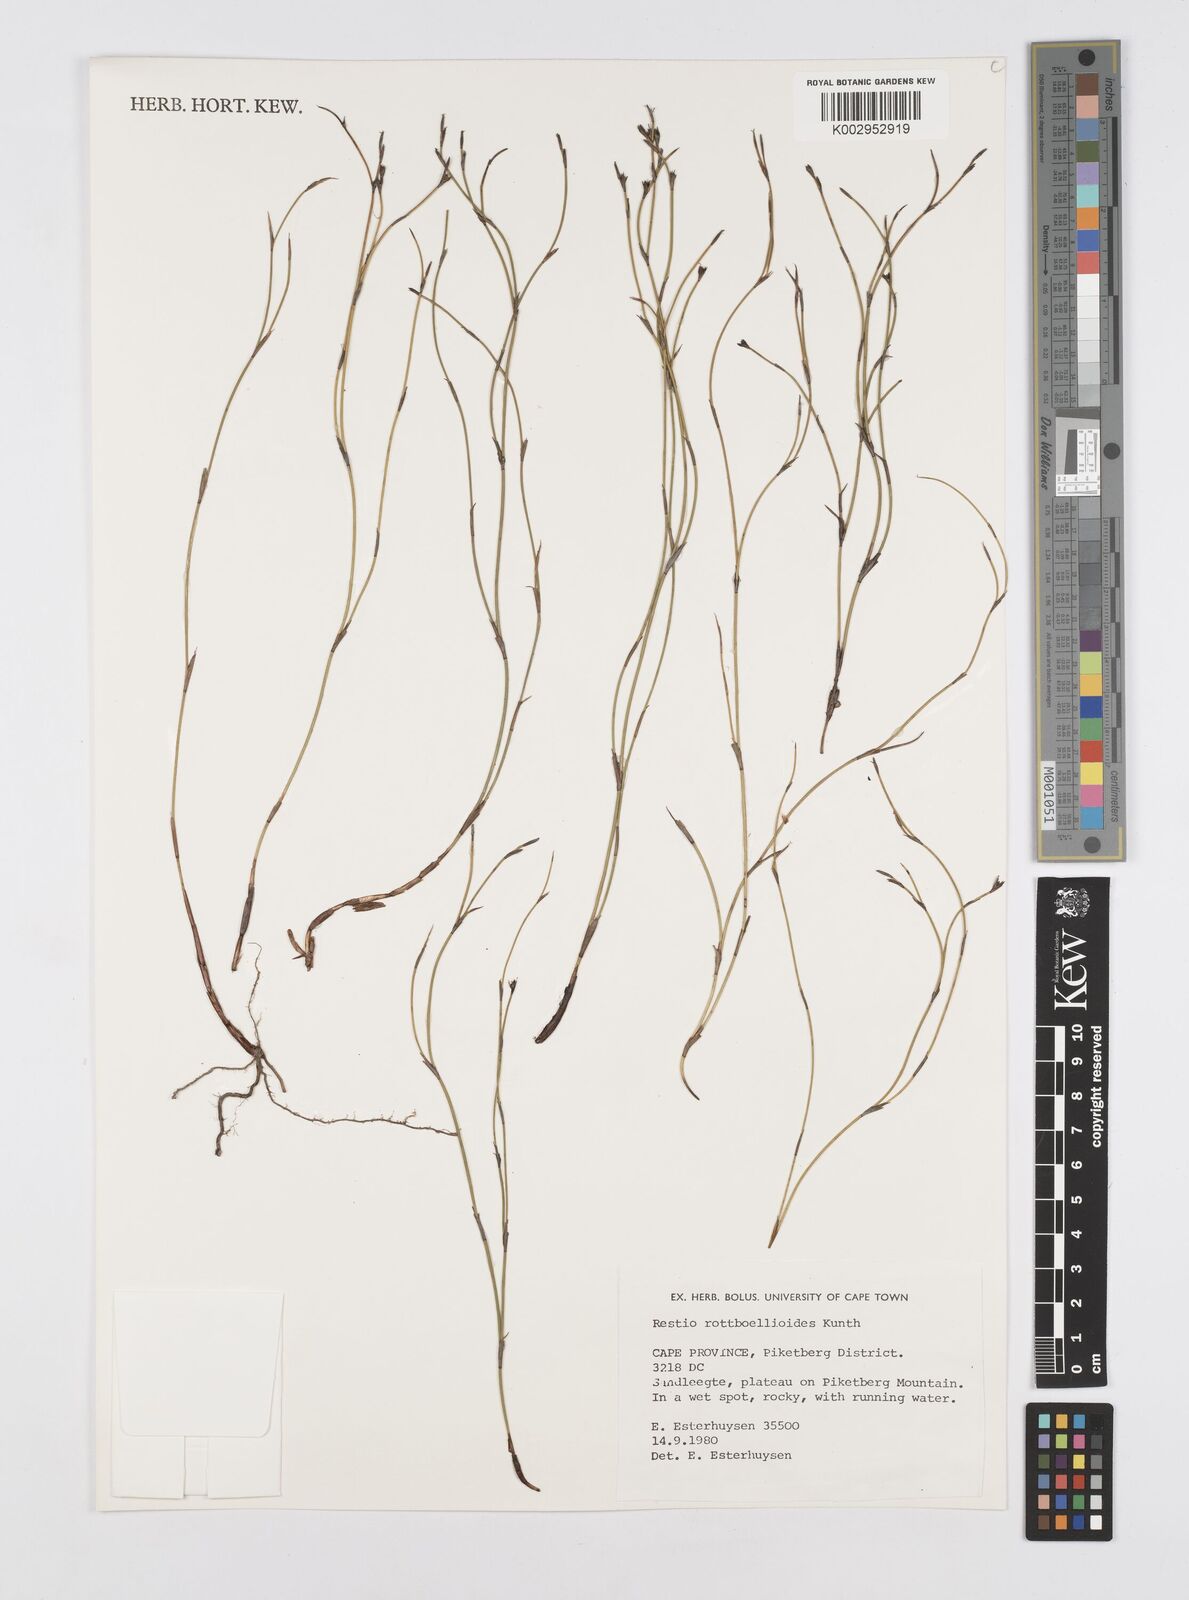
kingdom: Plantae
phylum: Tracheophyta
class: Liliopsida
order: Poales
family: Restionaceae
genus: Restio
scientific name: Restio rottboellioides
